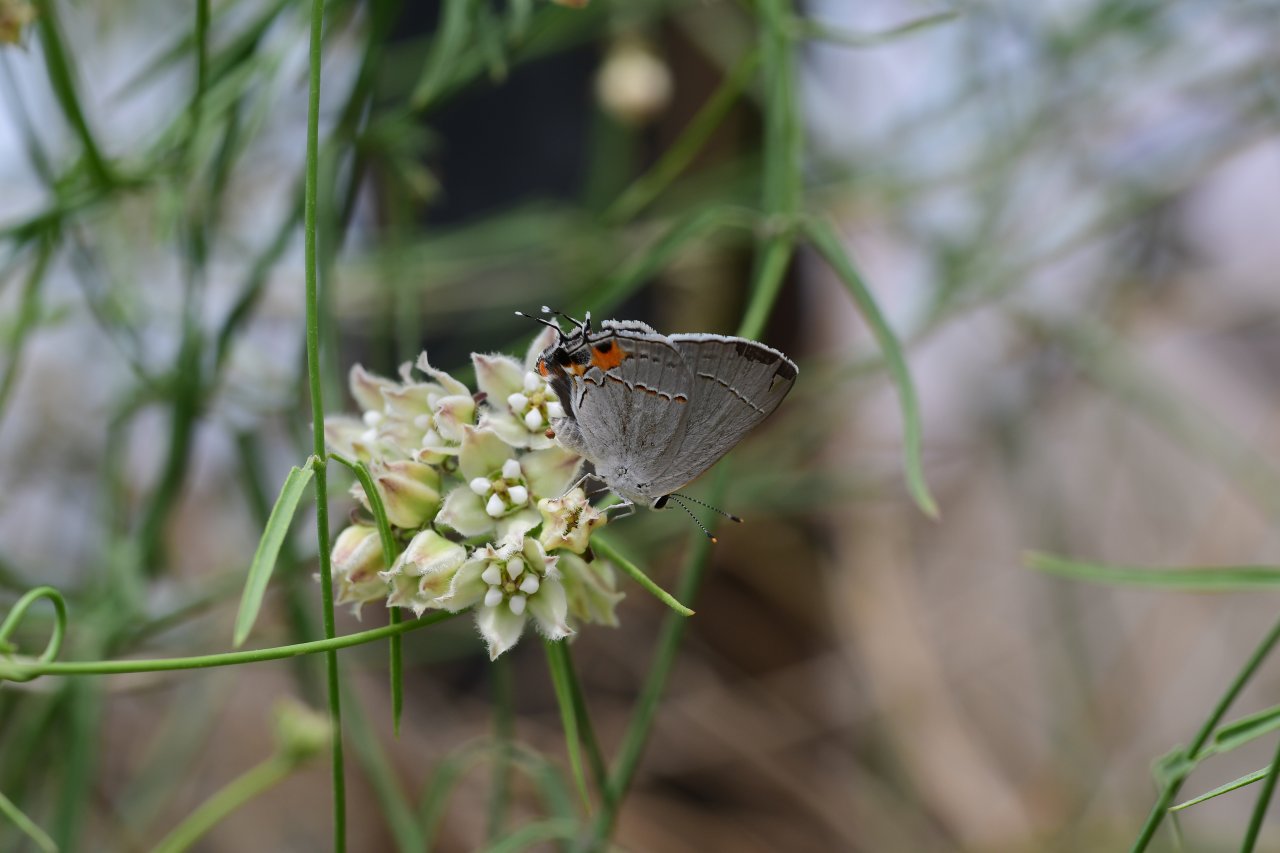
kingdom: Animalia
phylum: Arthropoda
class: Insecta
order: Lepidoptera
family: Lycaenidae
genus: Strymon
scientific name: Strymon melinus
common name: Gray Hairstreak
